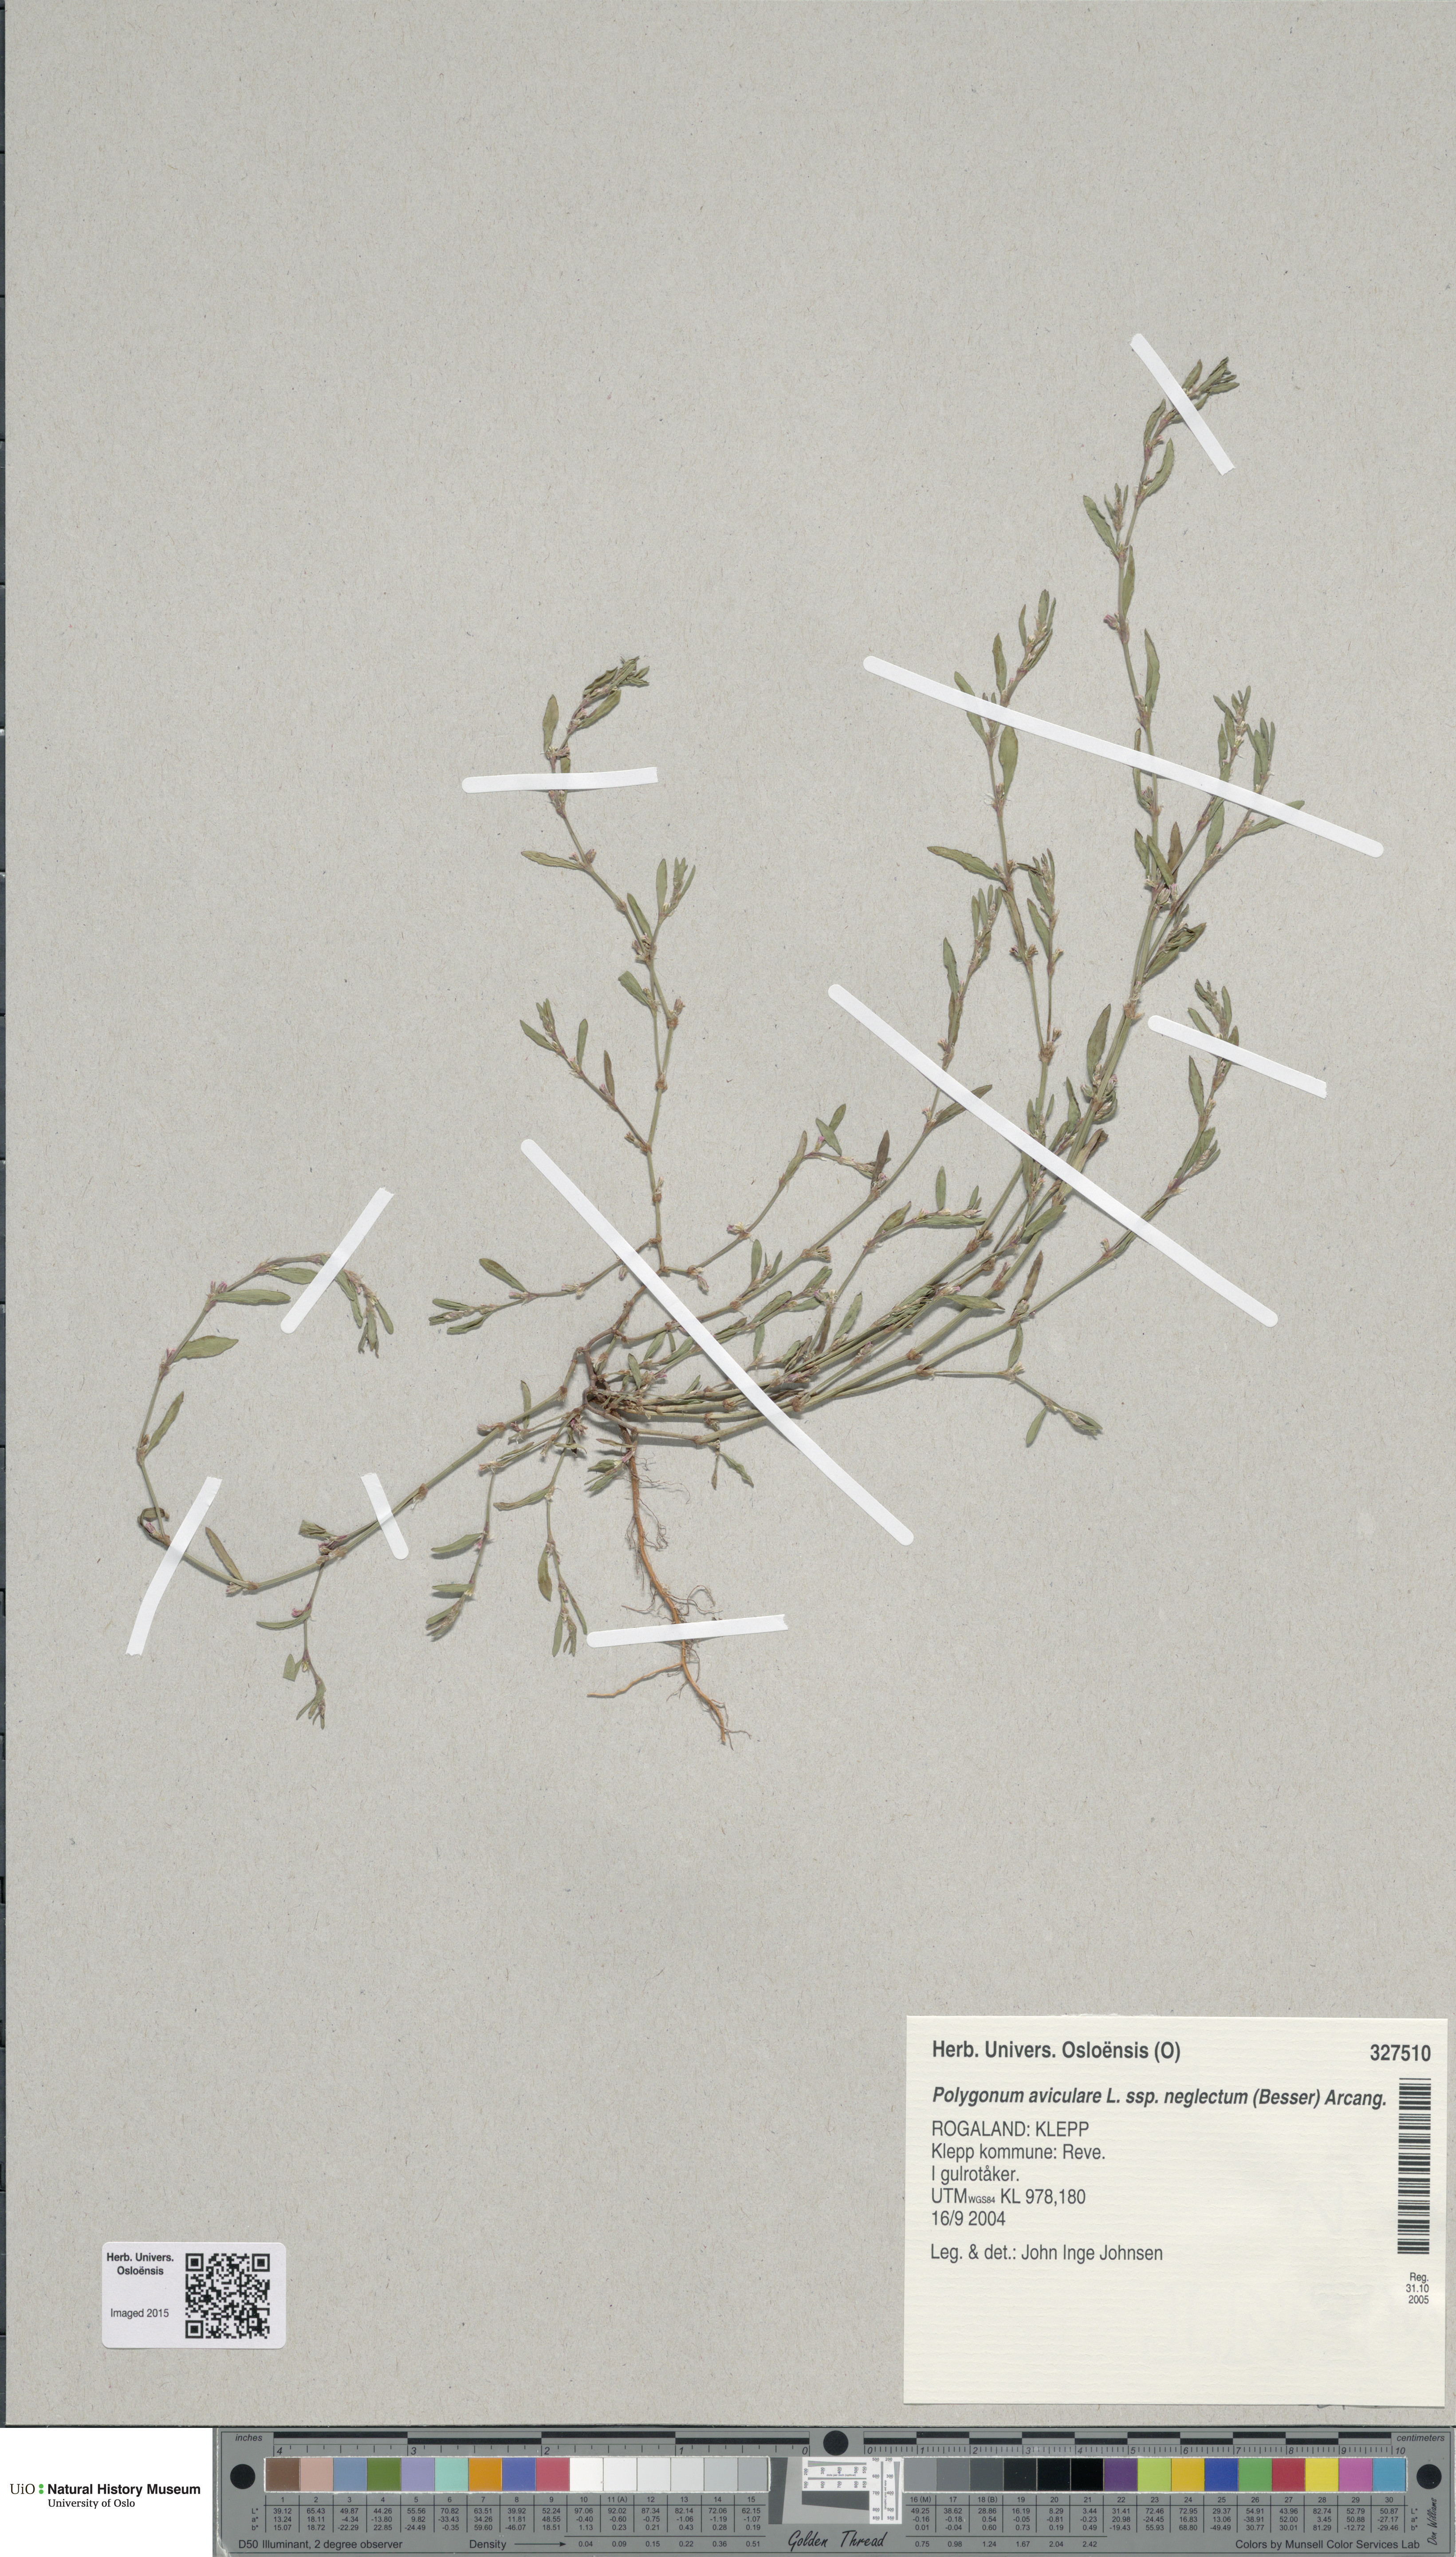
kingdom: Plantae
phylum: Tracheophyta
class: Magnoliopsida
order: Caryophyllales
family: Polygonaceae
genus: Polygonum
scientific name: Polygonum aviculare
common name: Prostrate knotweed
